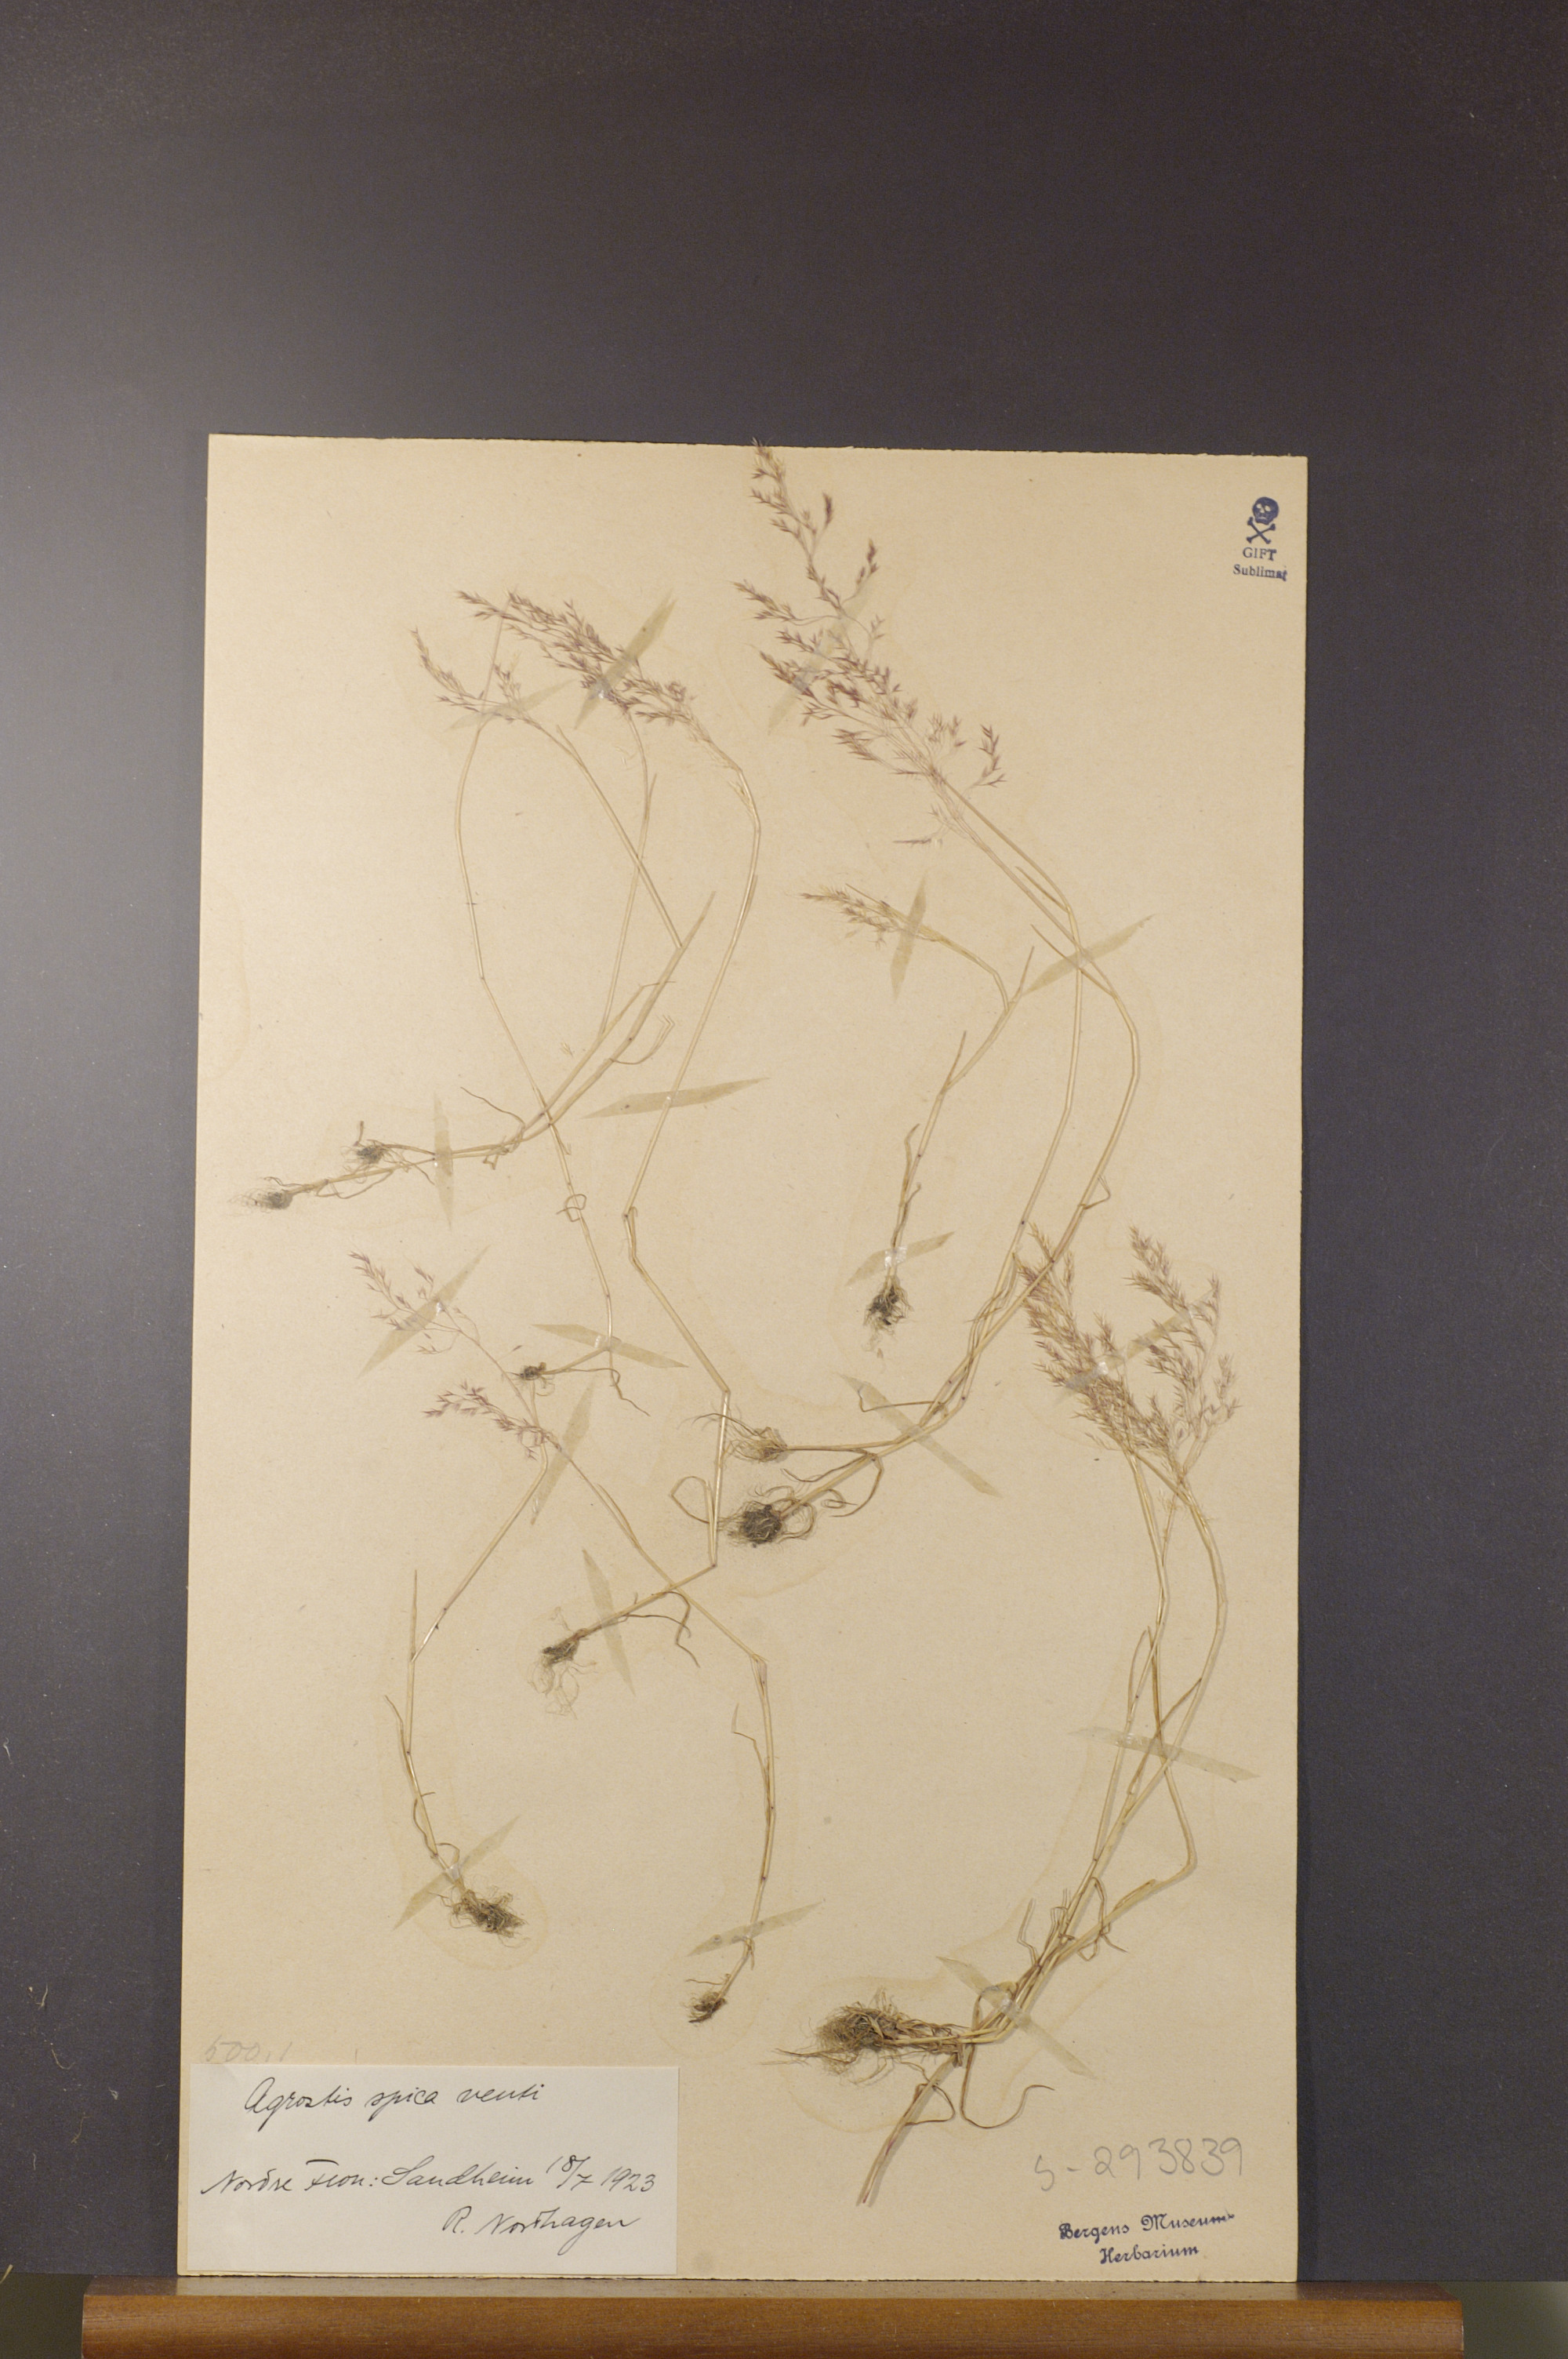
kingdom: Plantae
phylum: Tracheophyta
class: Liliopsida
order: Poales
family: Poaceae
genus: Apera
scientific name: Apera spica-venti
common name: Loose silky-bent
